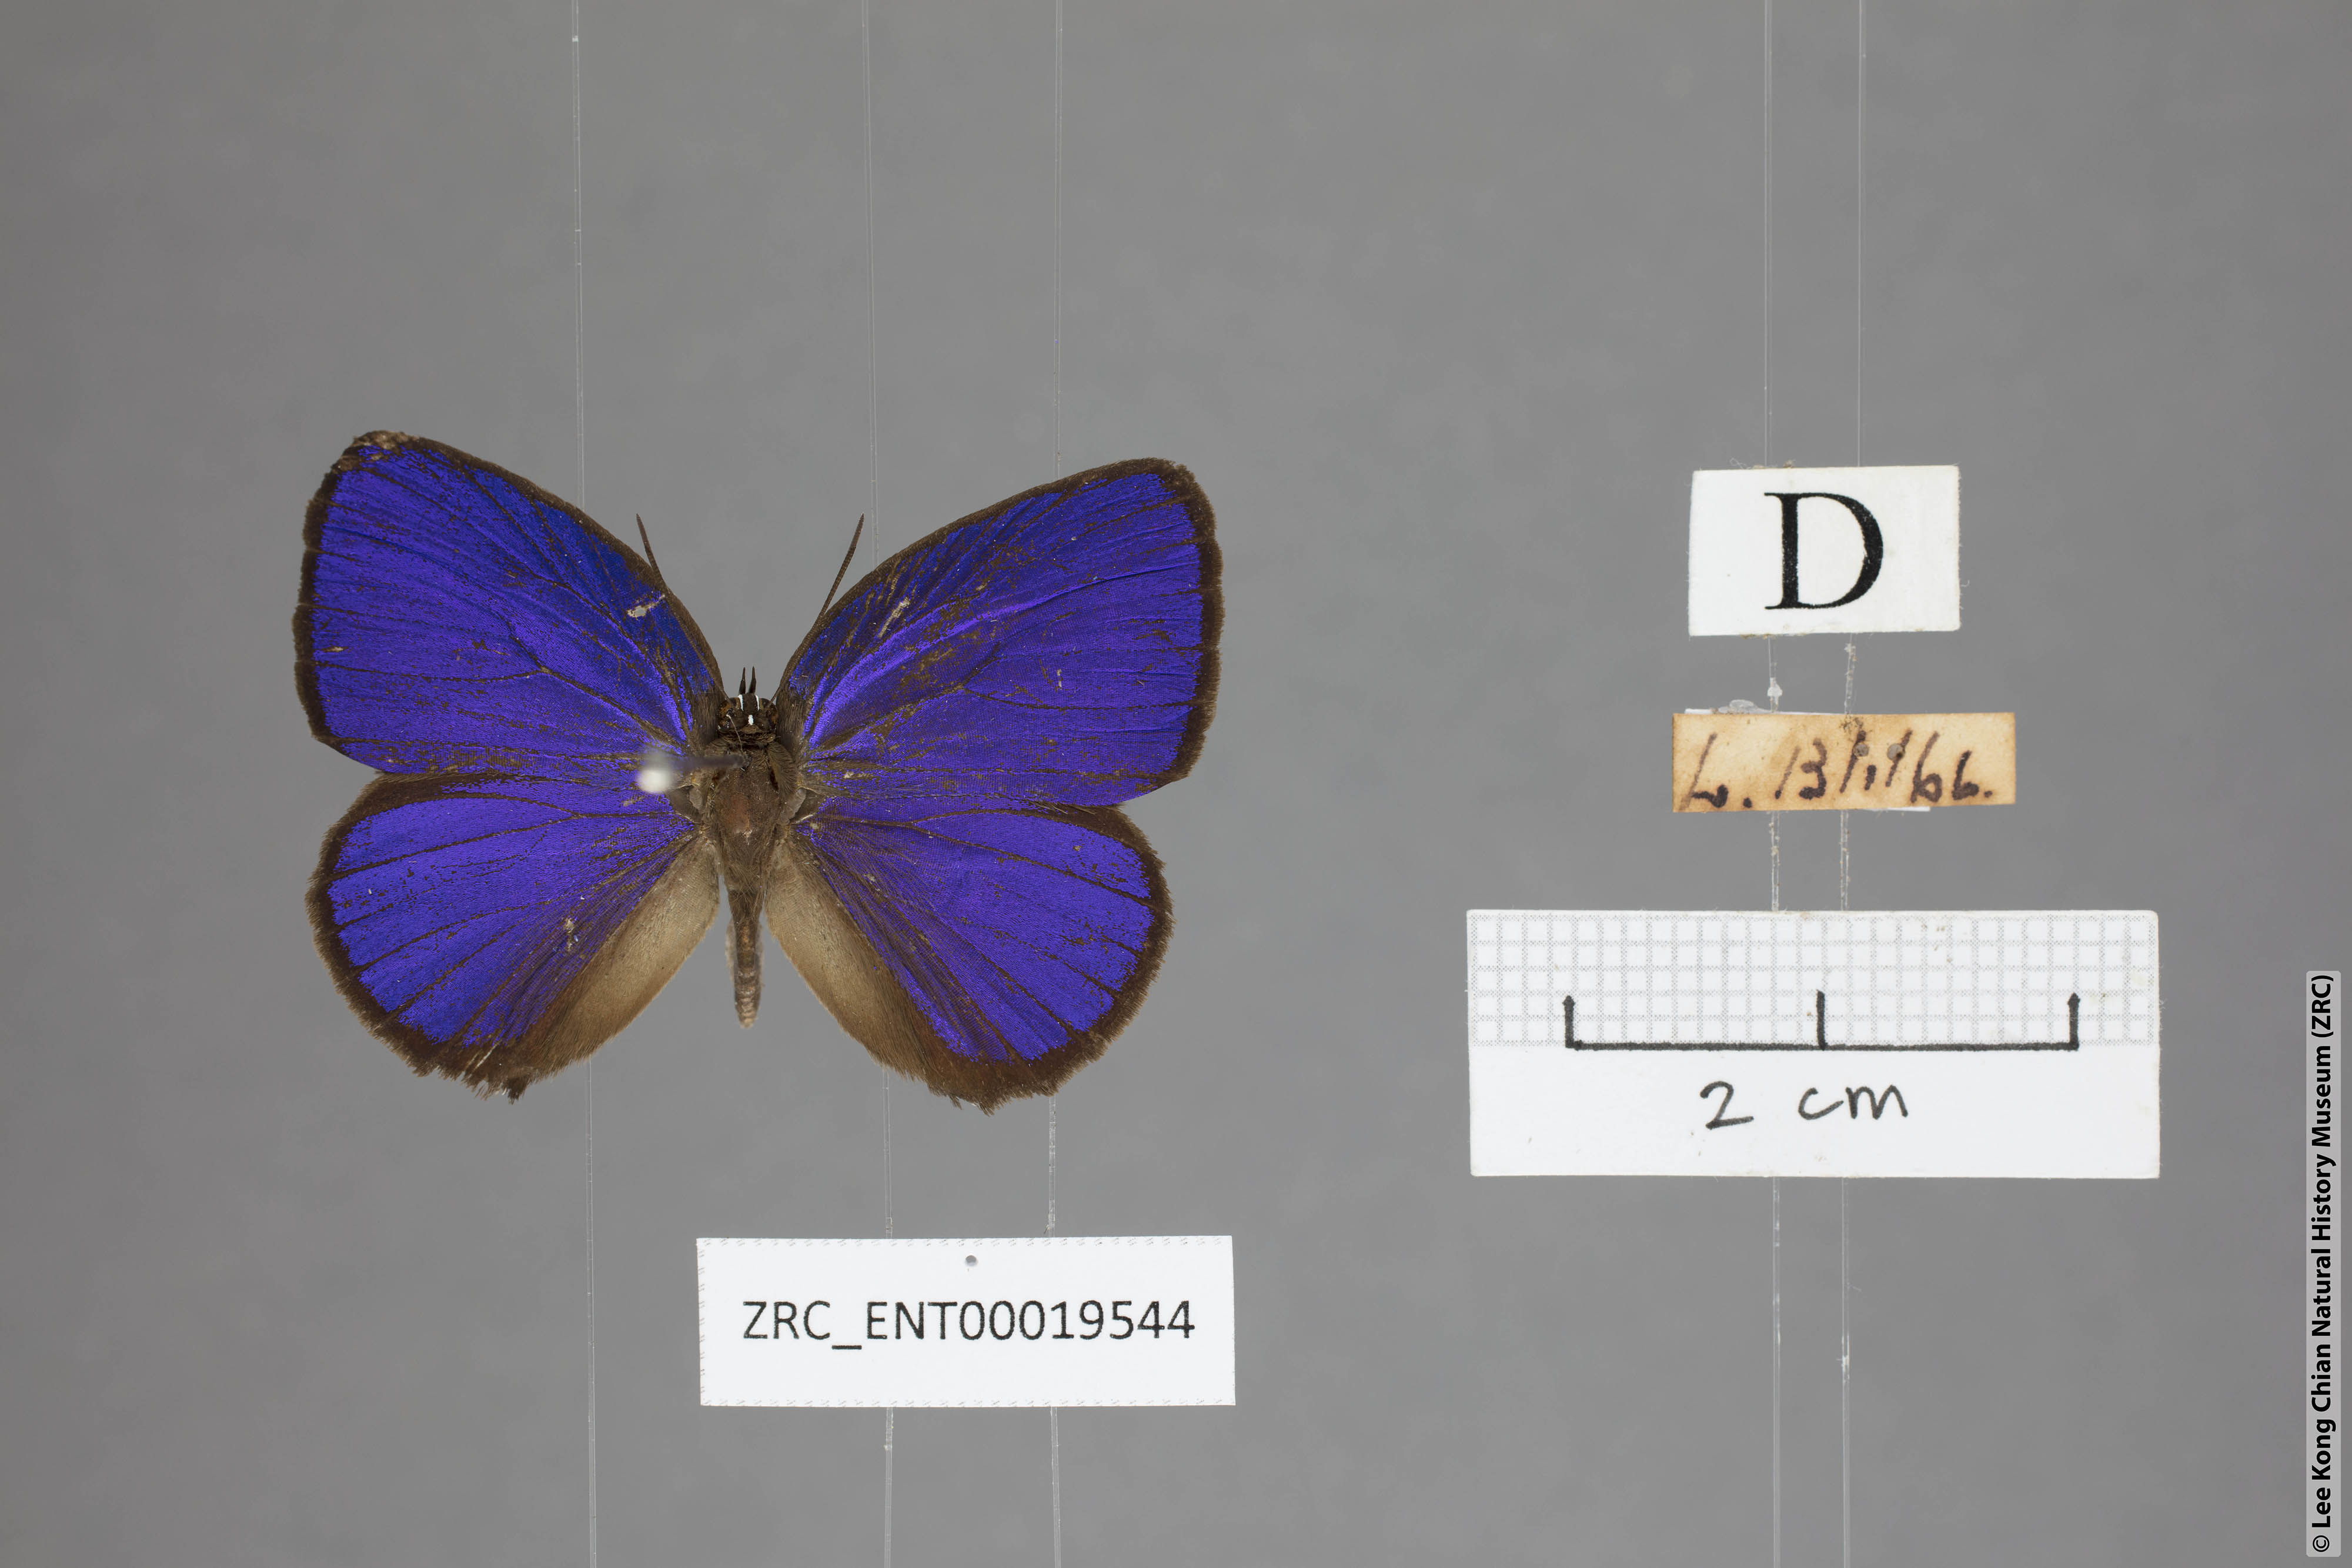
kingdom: Animalia
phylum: Arthropoda
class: Insecta
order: Lepidoptera
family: Lycaenidae
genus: Arhopala
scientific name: Arhopala hypomuta
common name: Violet oakblue
